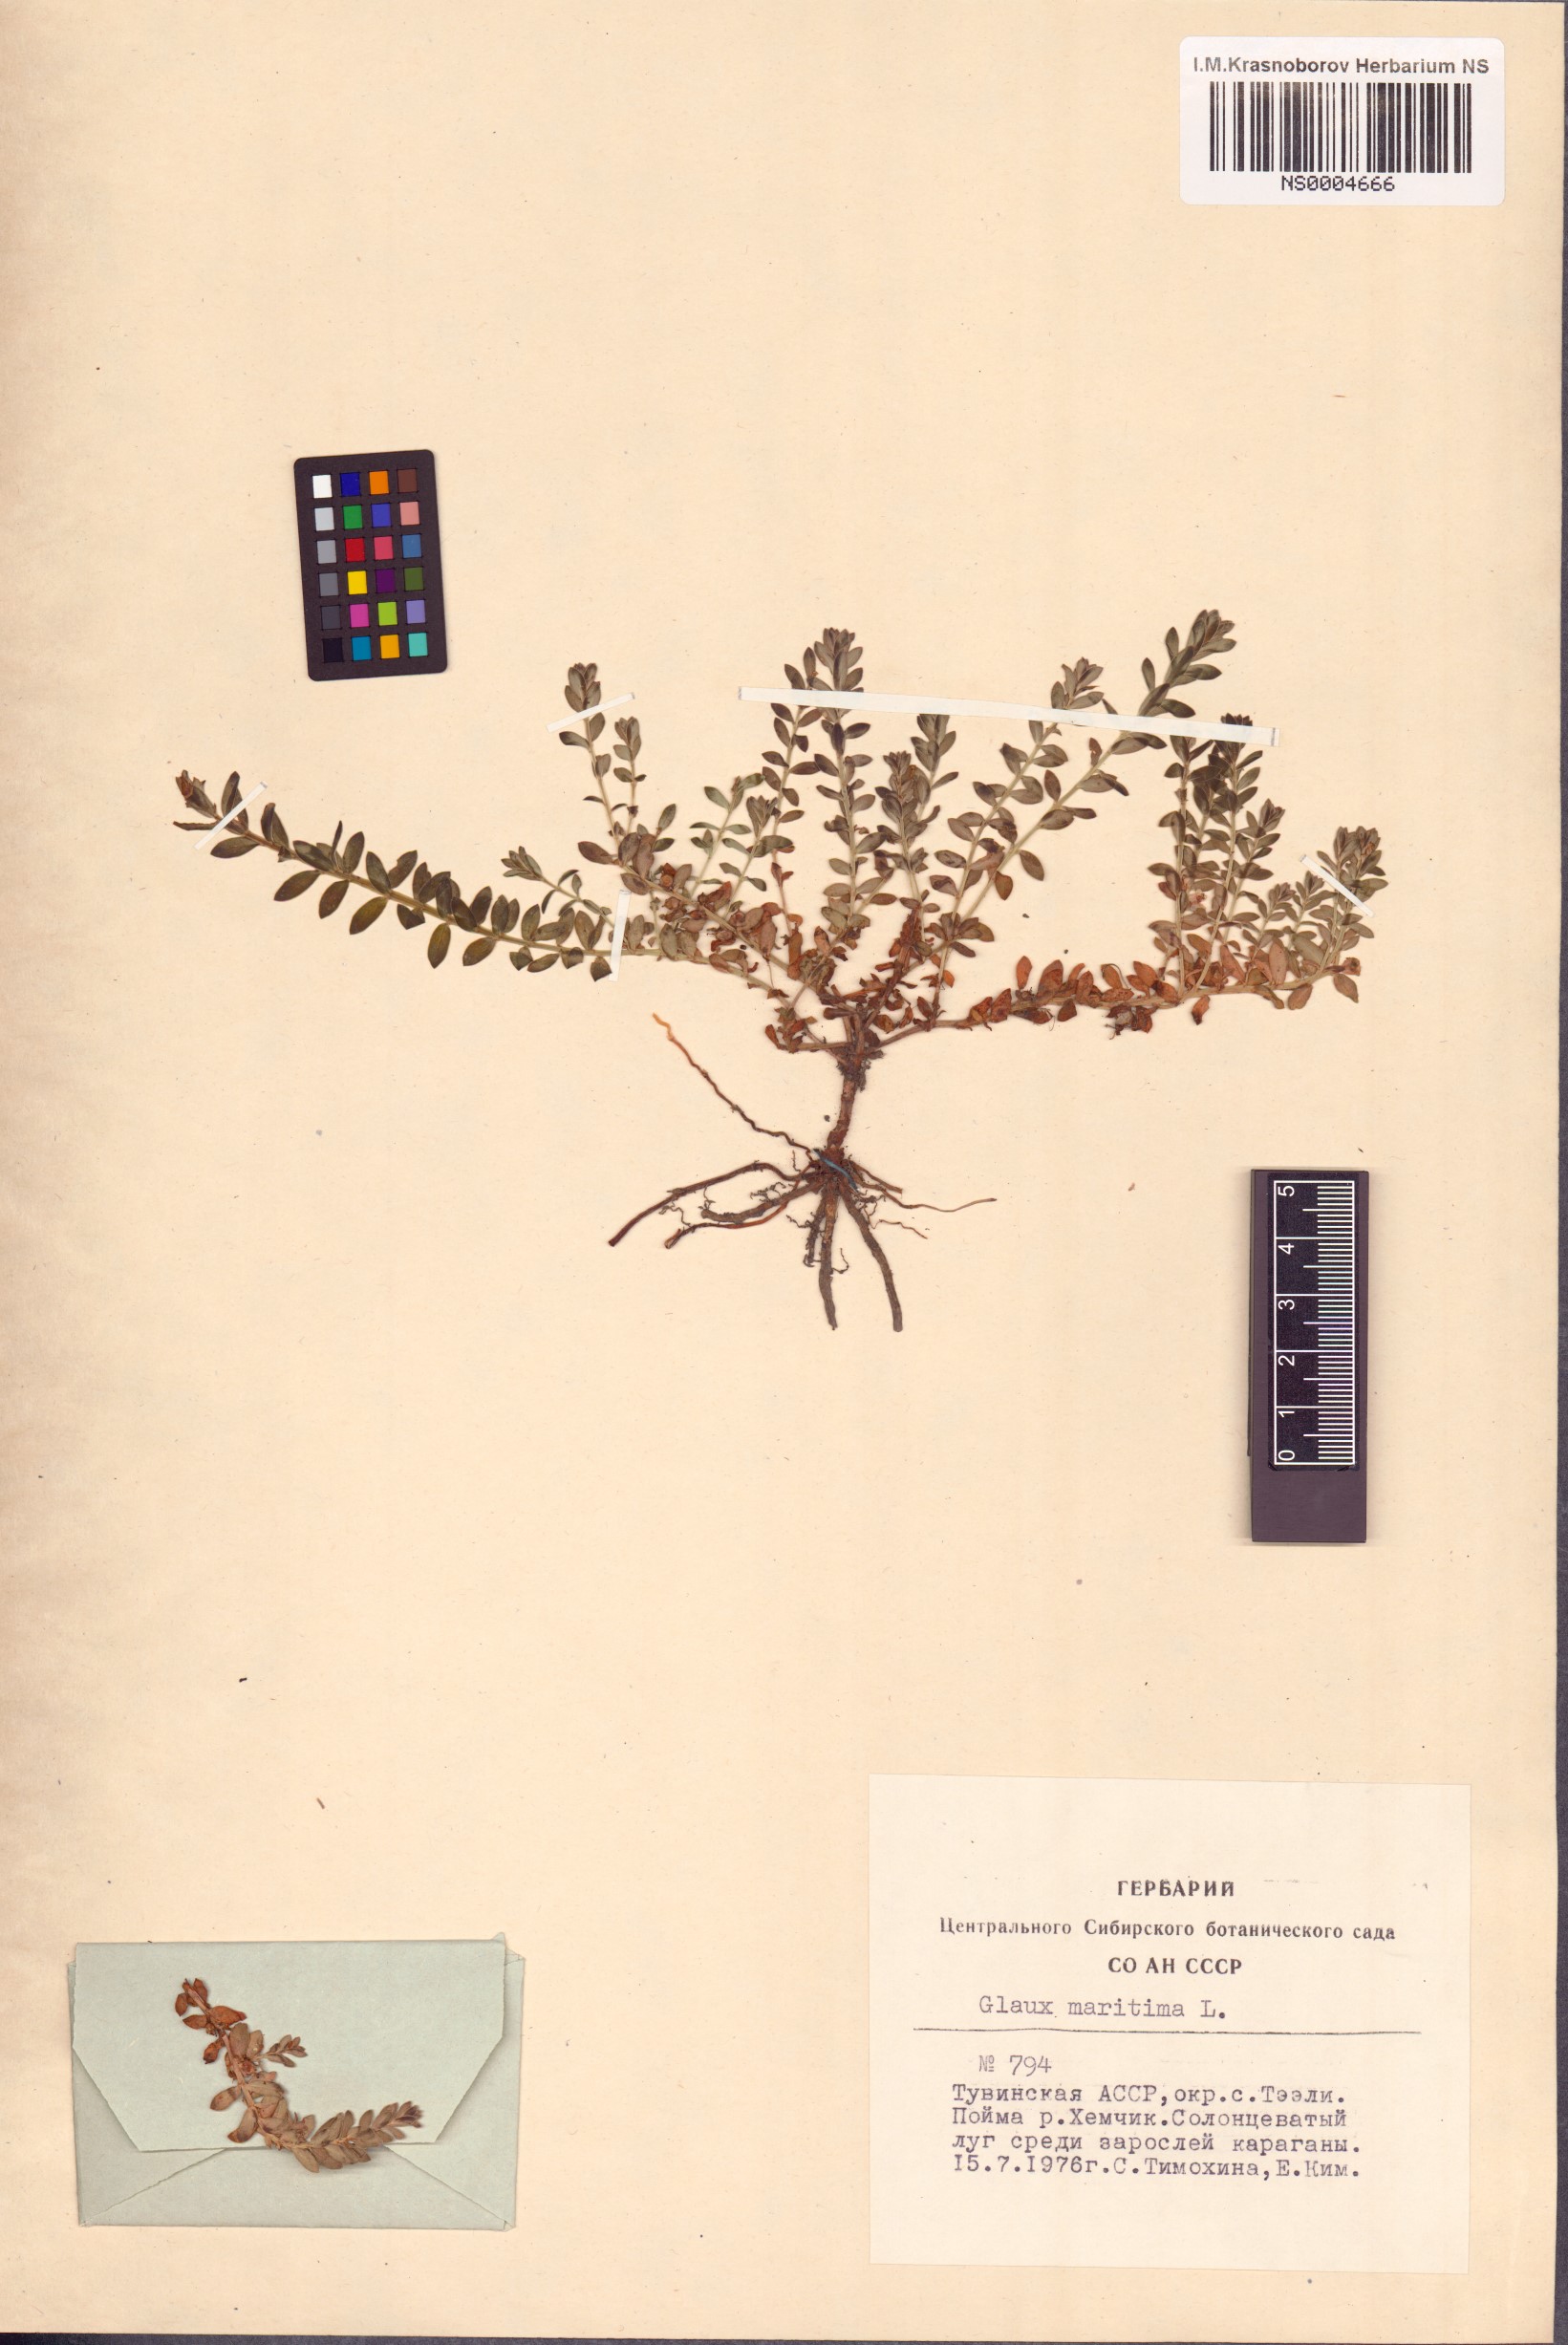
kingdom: Plantae
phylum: Tracheophyta
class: Magnoliopsida
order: Ericales
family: Primulaceae
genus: Lysimachia
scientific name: Lysimachia maritima
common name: Sea milkwort
